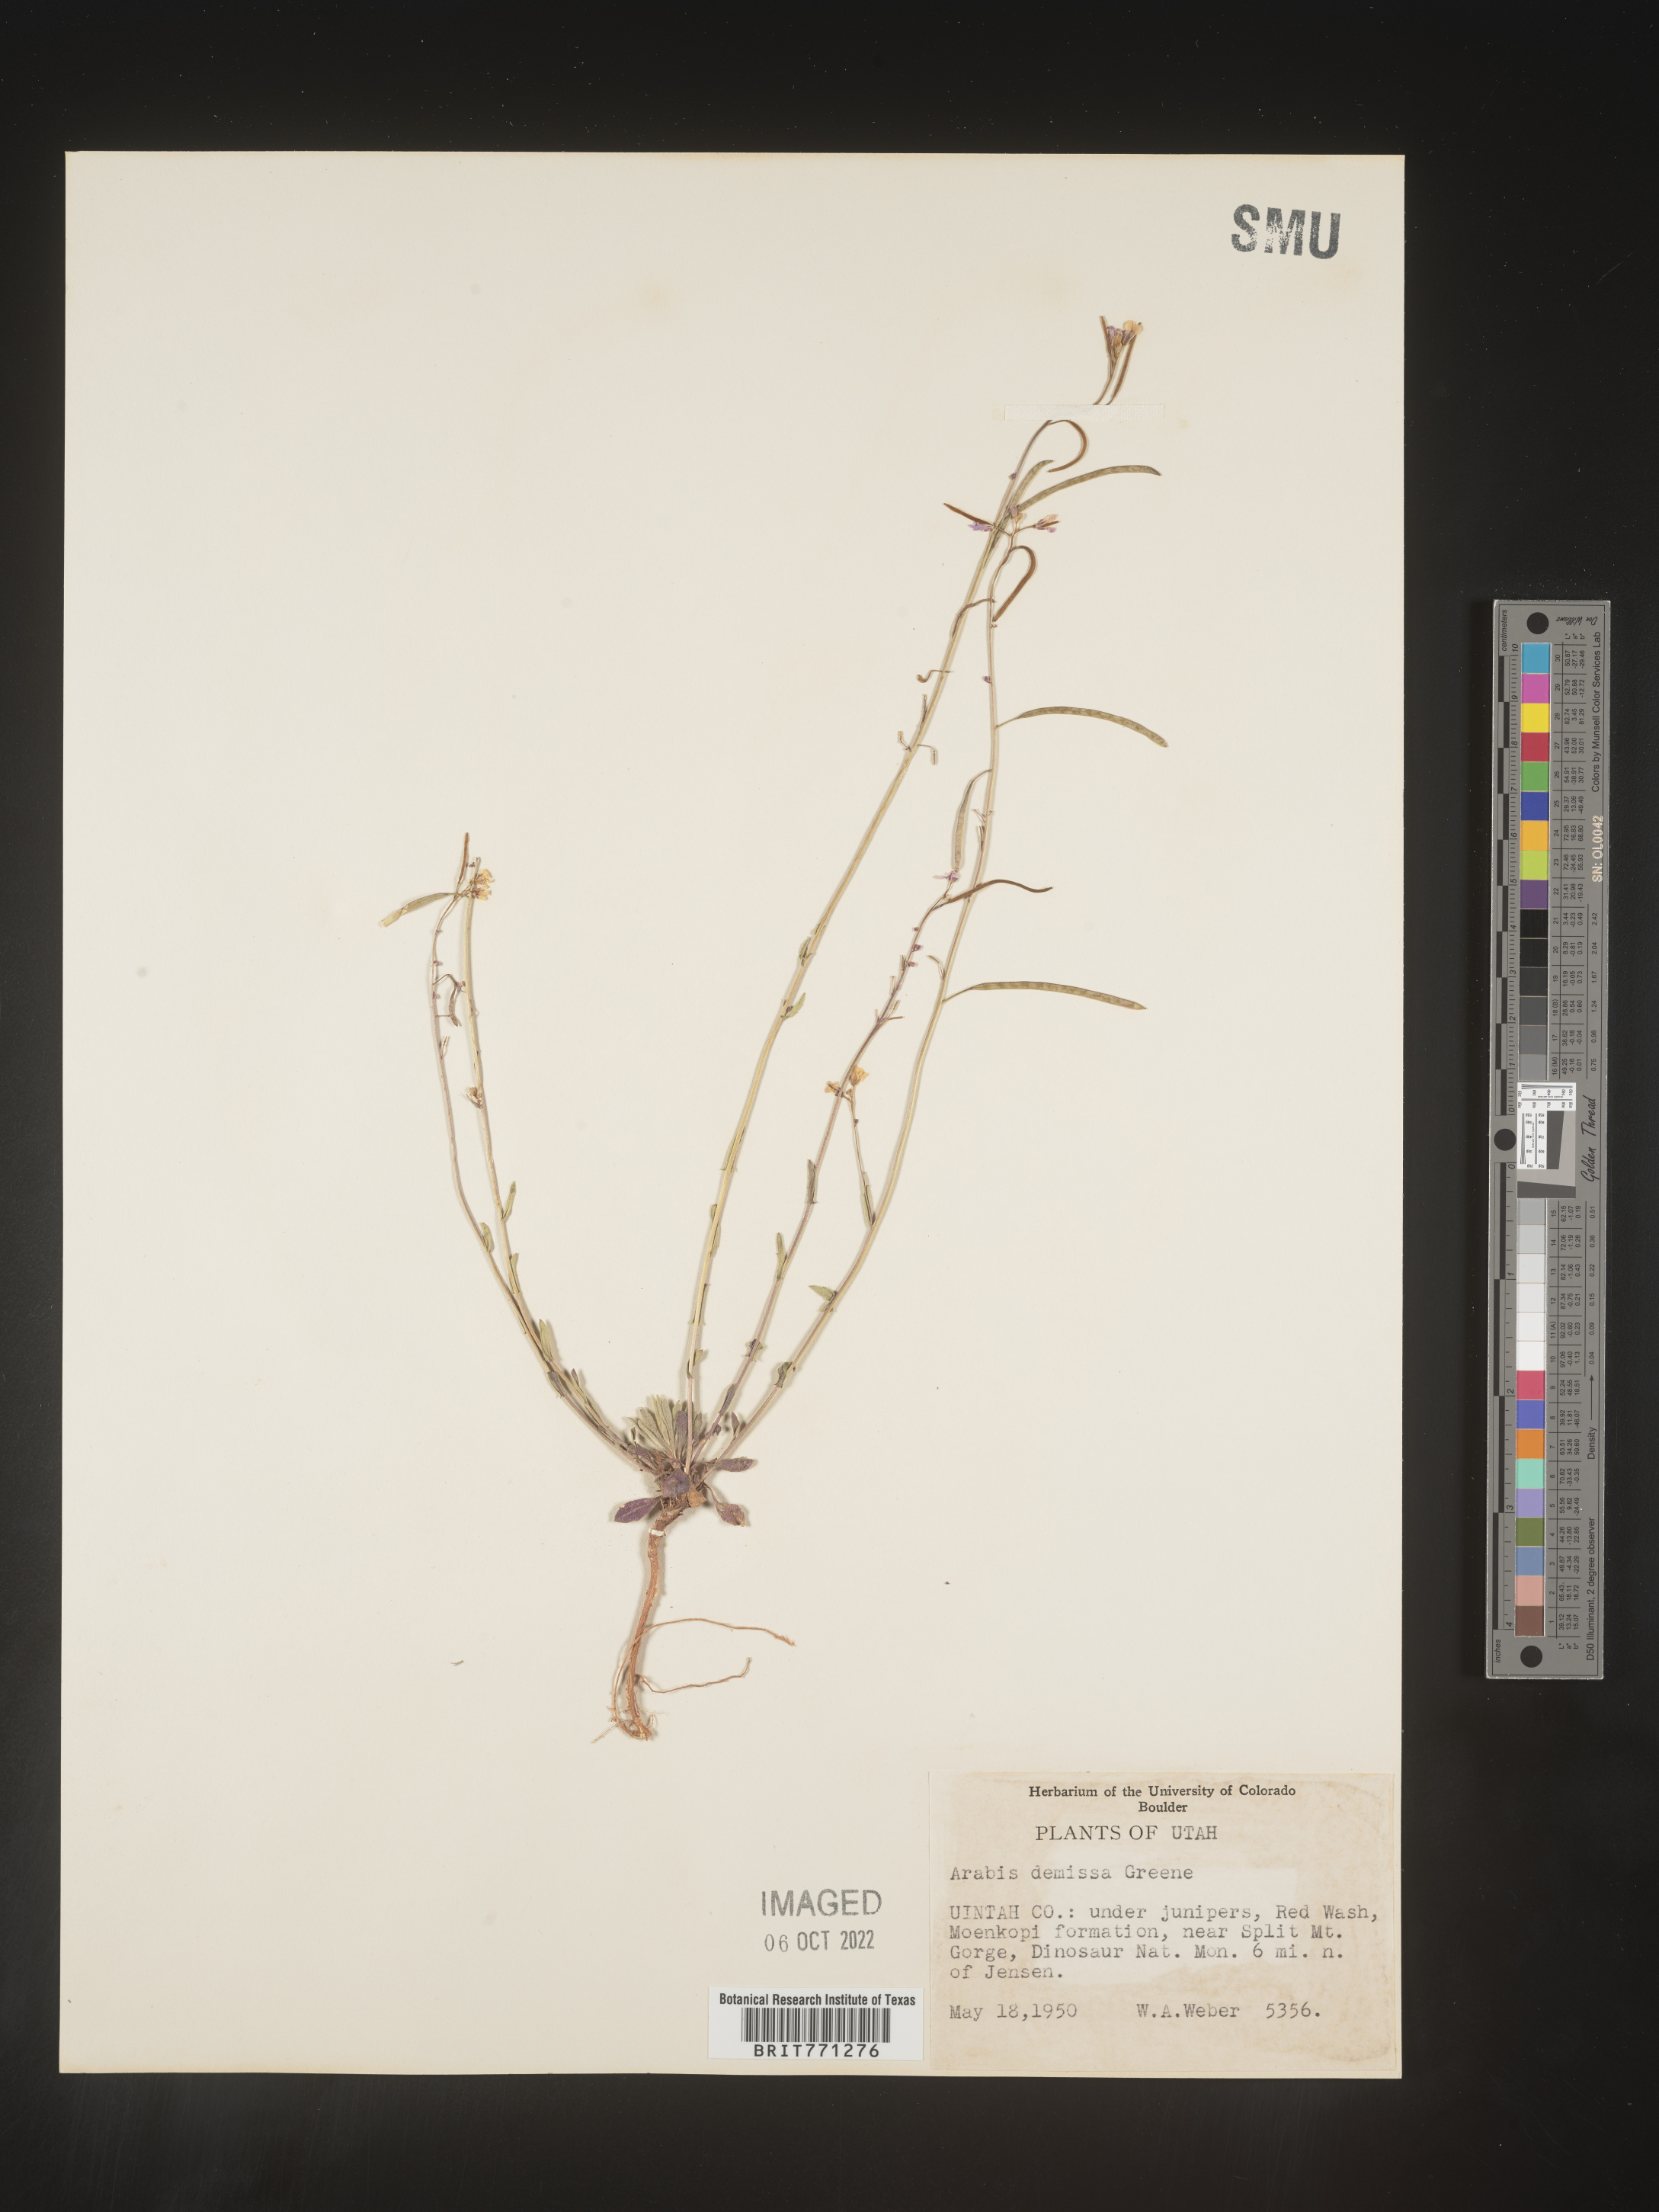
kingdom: Plantae
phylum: Tracheophyta
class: Magnoliopsida
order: Brassicales
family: Brassicaceae
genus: Arabis
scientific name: Arabis
